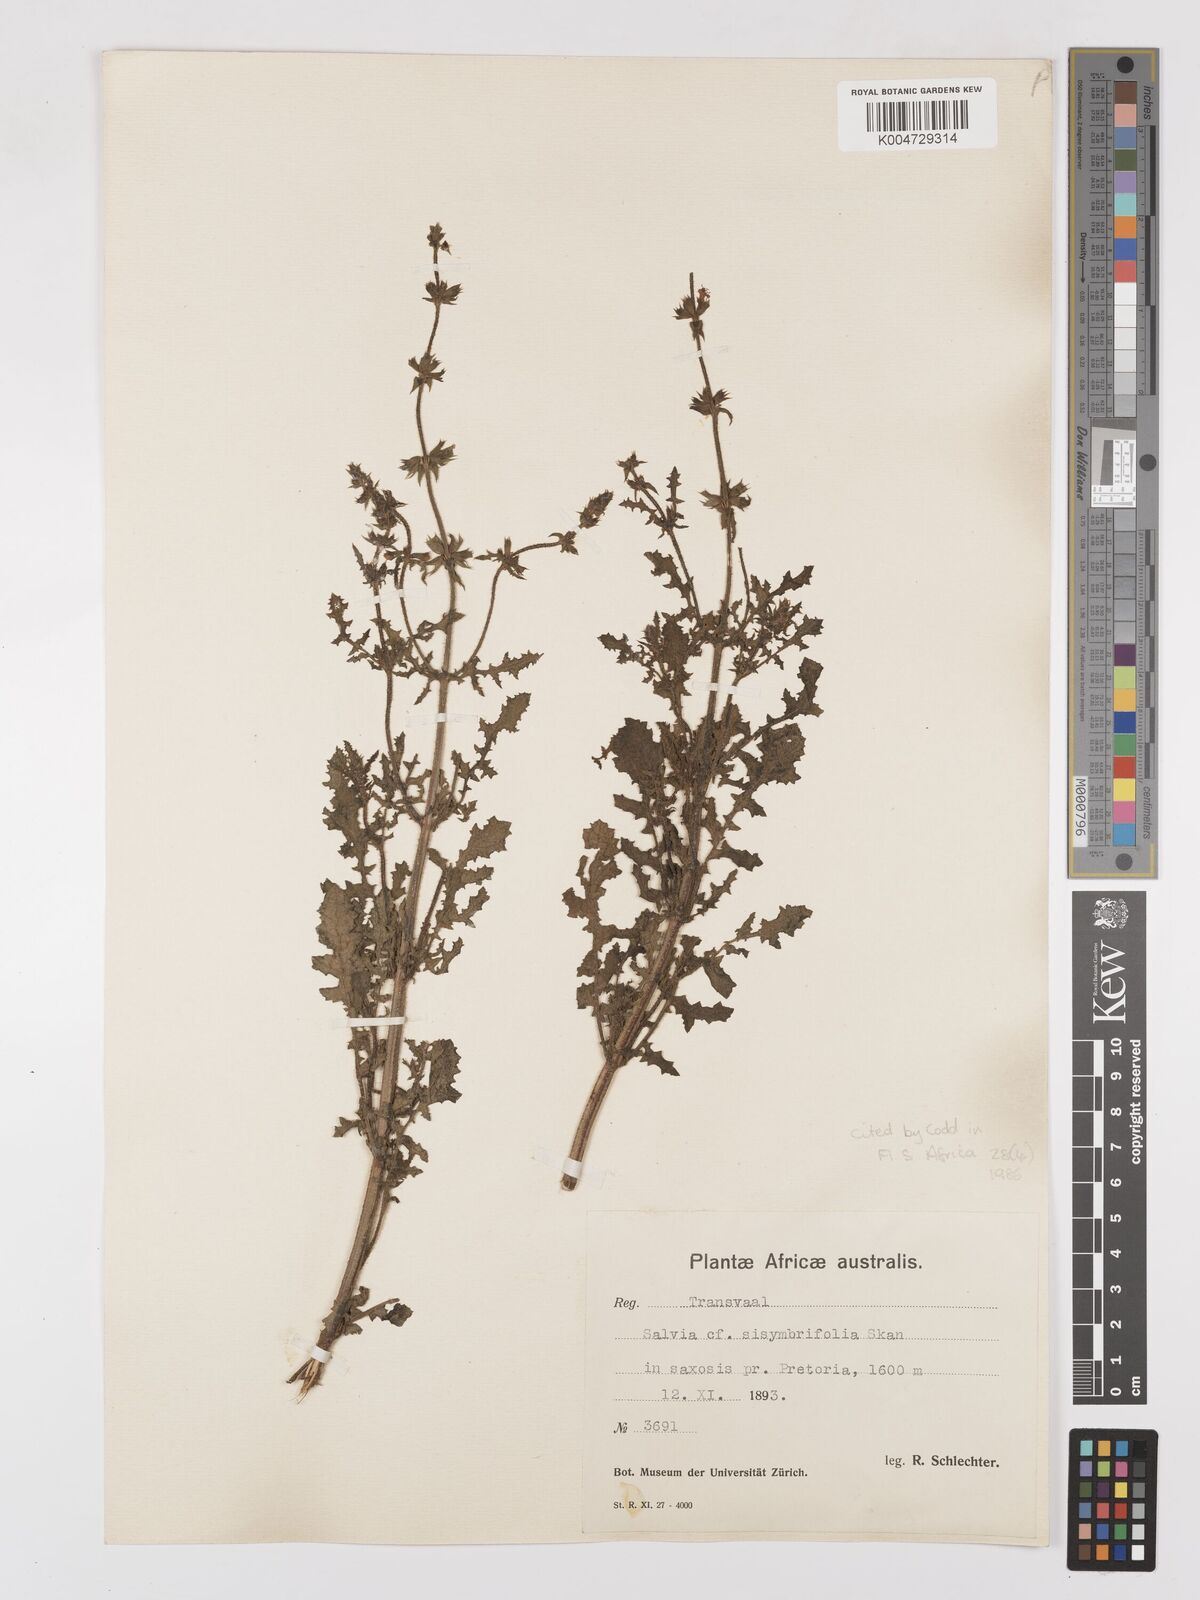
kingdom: Plantae
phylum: Tracheophyta
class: Magnoliopsida
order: Lamiales
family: Lamiaceae
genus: Salvia
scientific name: Salvia runcinata
